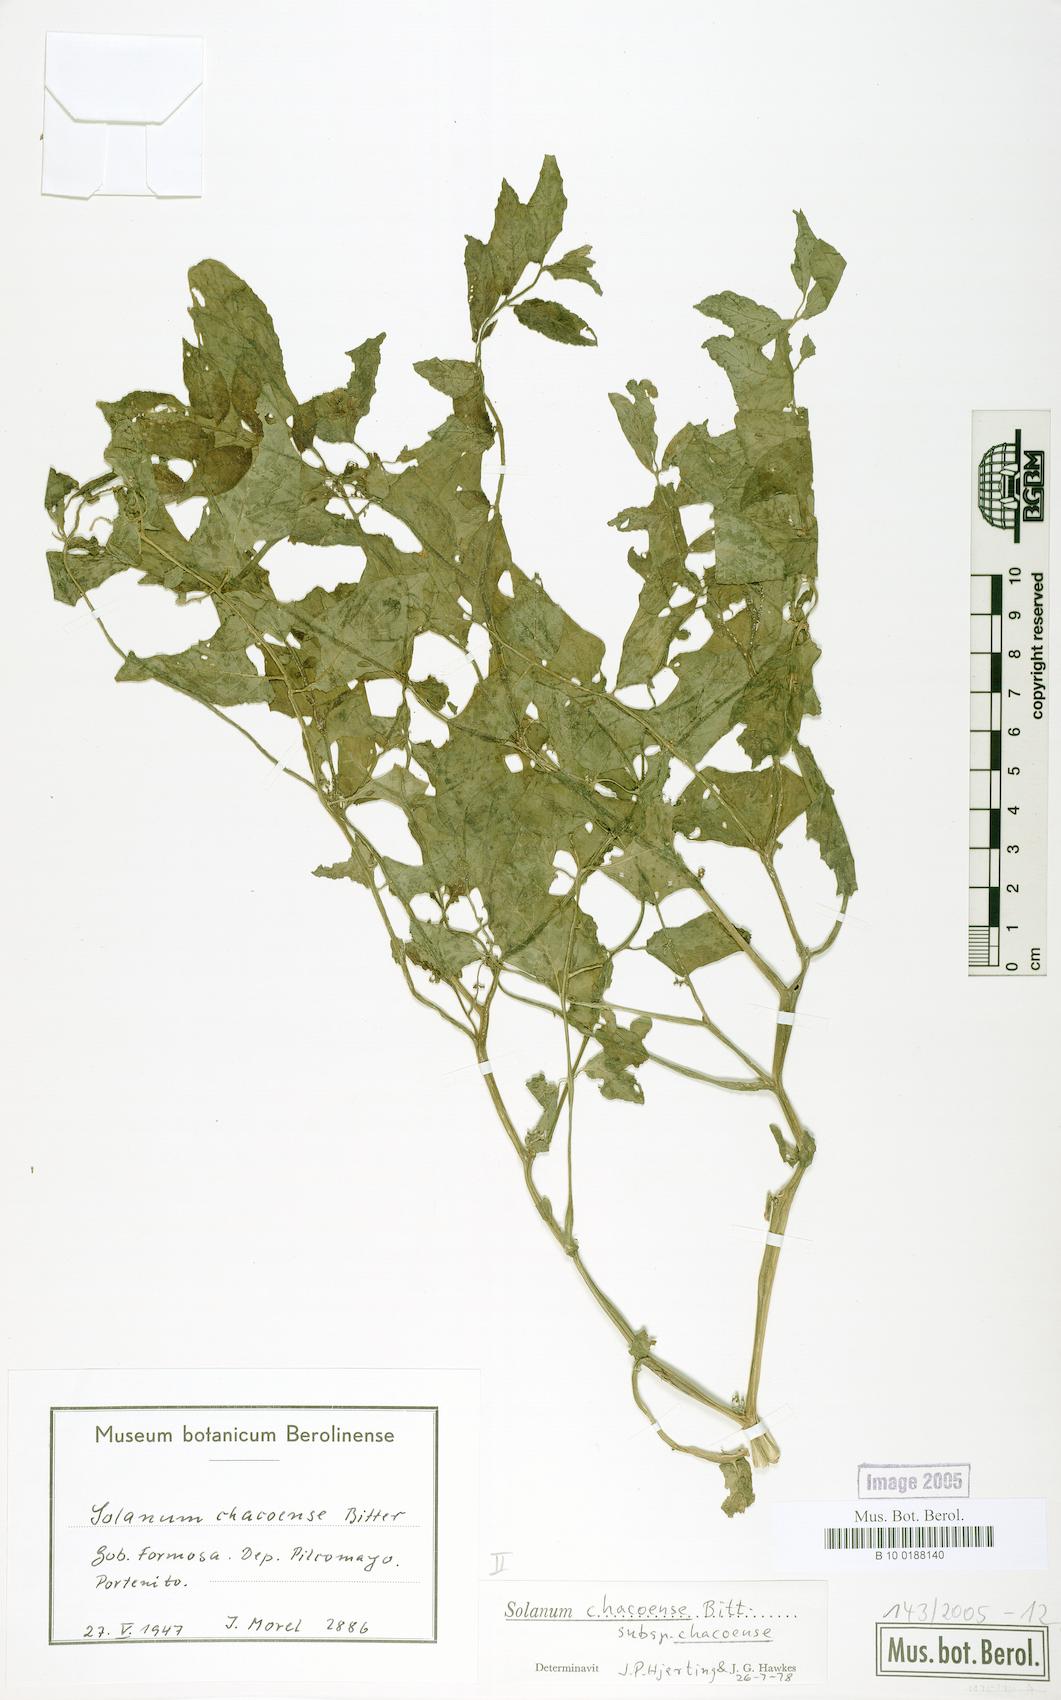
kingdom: Plantae
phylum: Tracheophyta
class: Magnoliopsida
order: Solanales
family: Solanaceae
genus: Solanum
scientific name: Solanum chacoense
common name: Chaco potato
